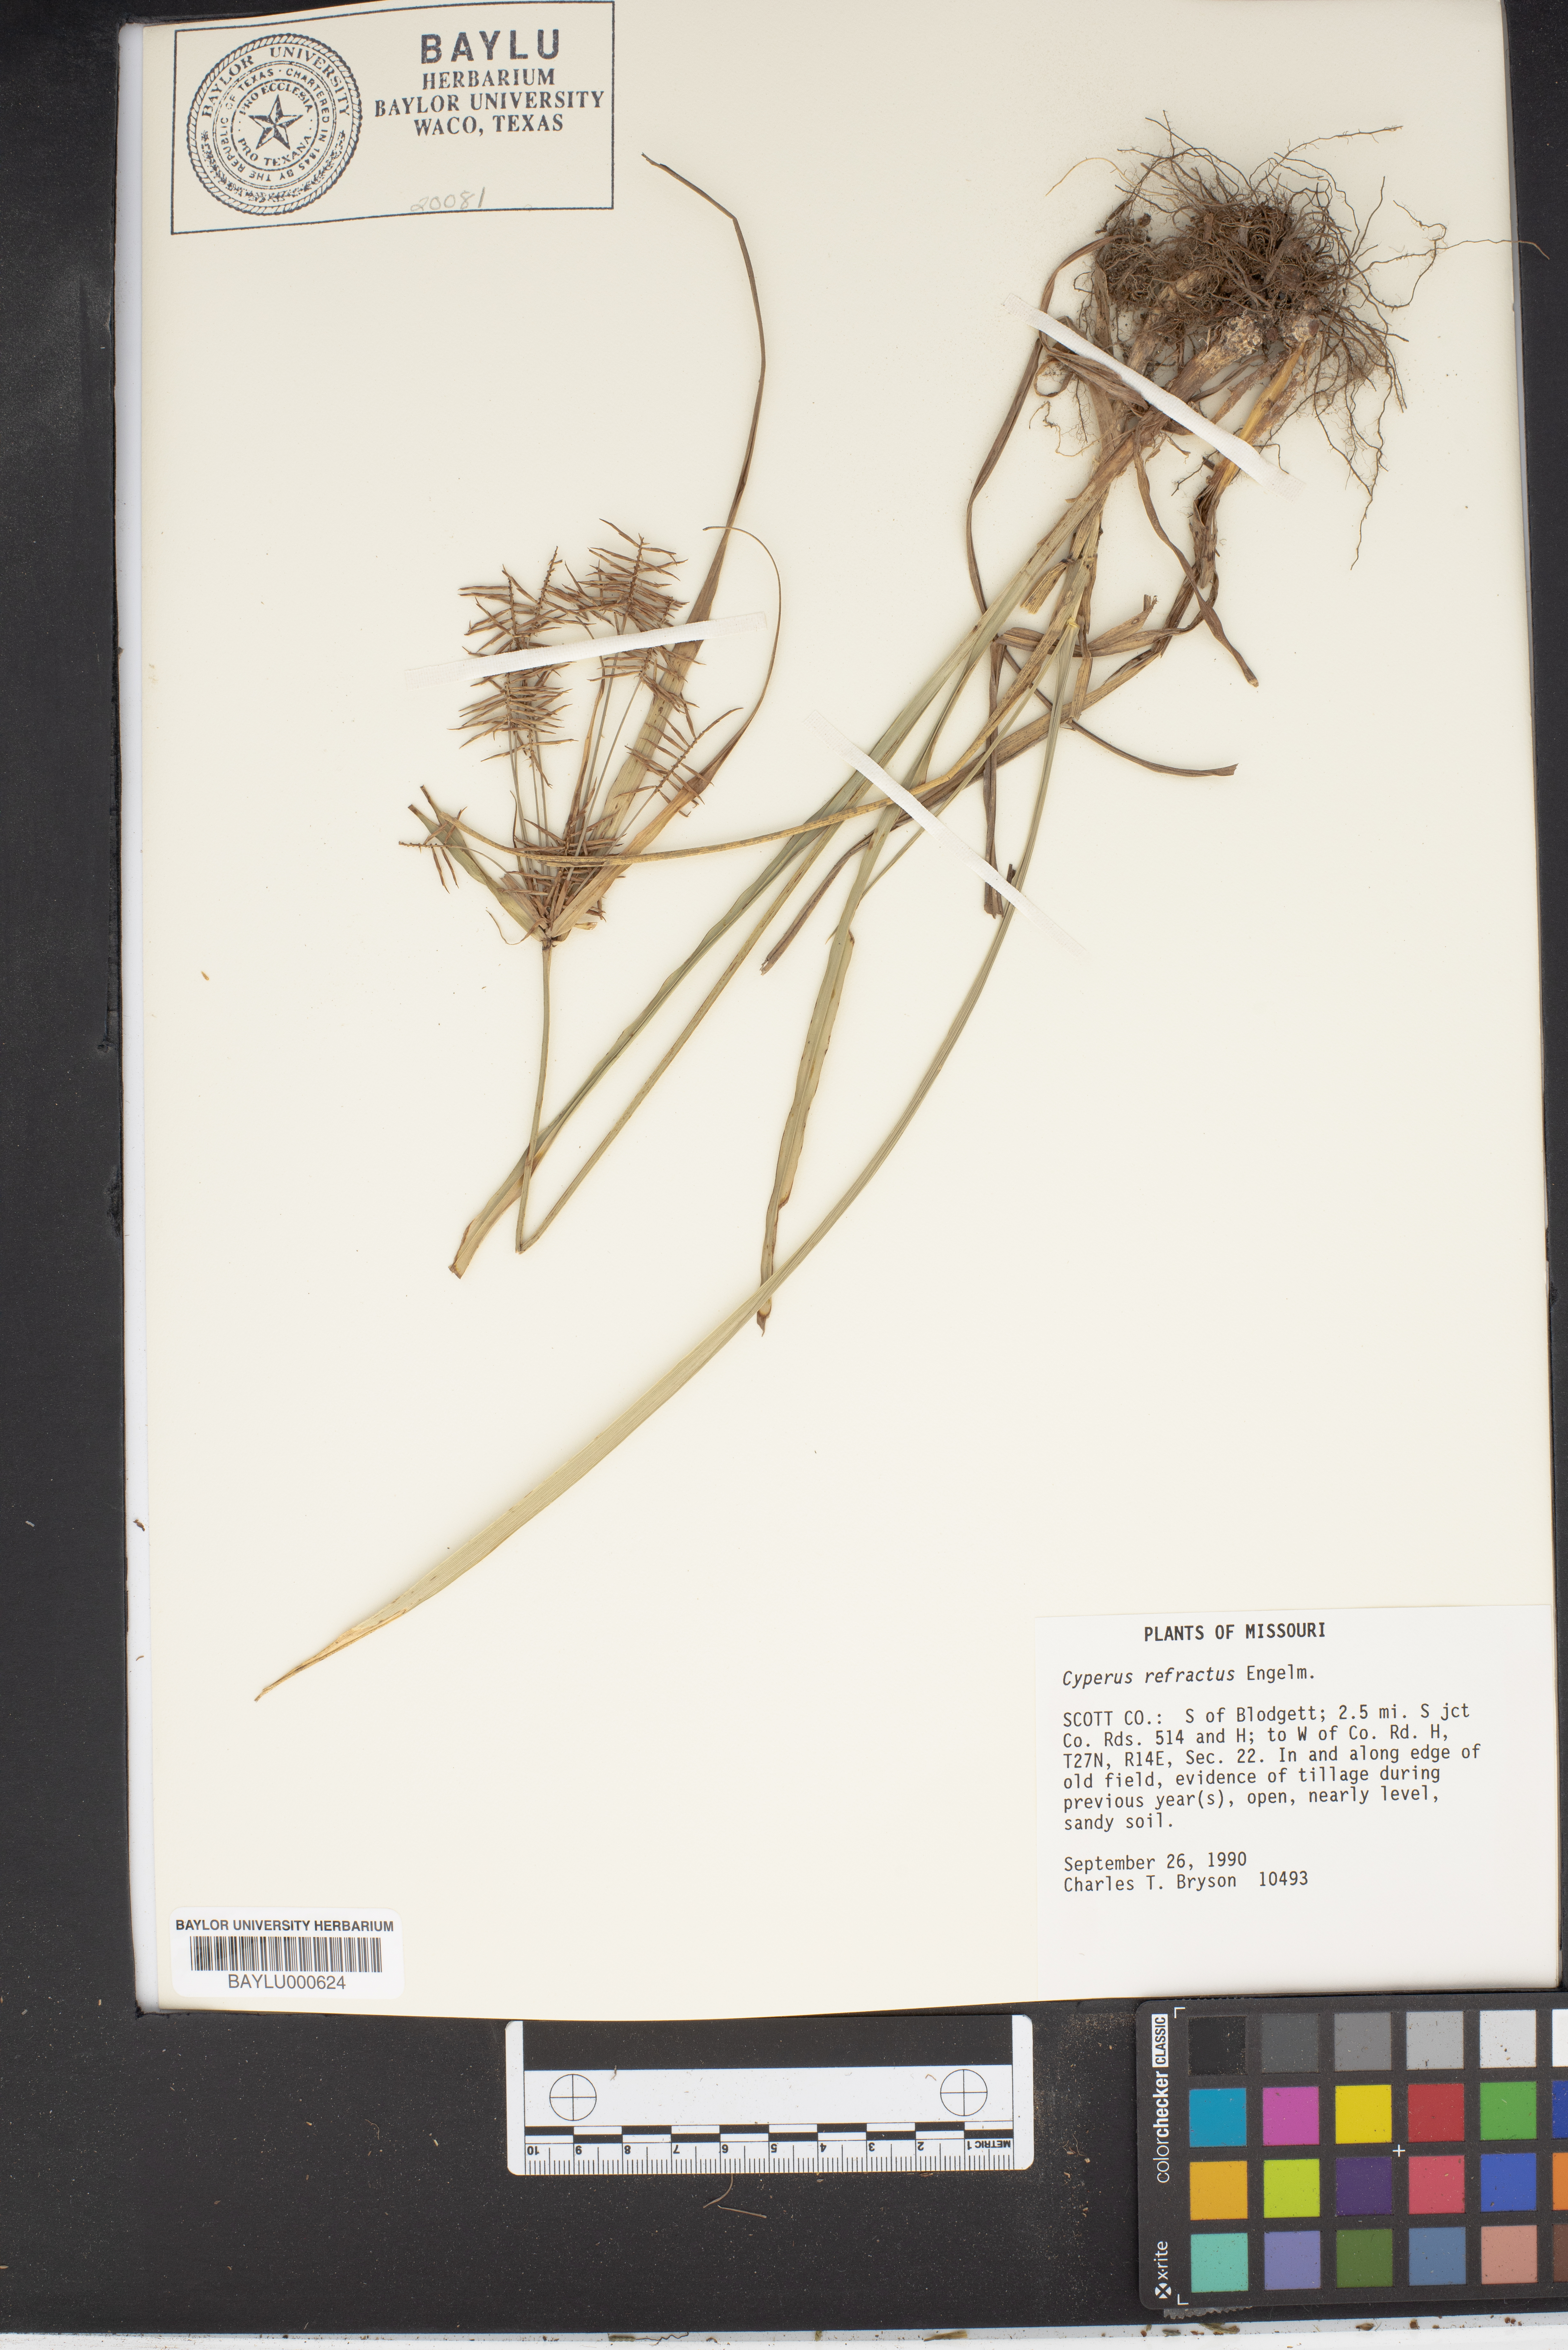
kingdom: Plantae
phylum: Tracheophyta
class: Liliopsida
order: Poales
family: Cyperaceae
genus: Cyperus
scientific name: Cyperus refractus
